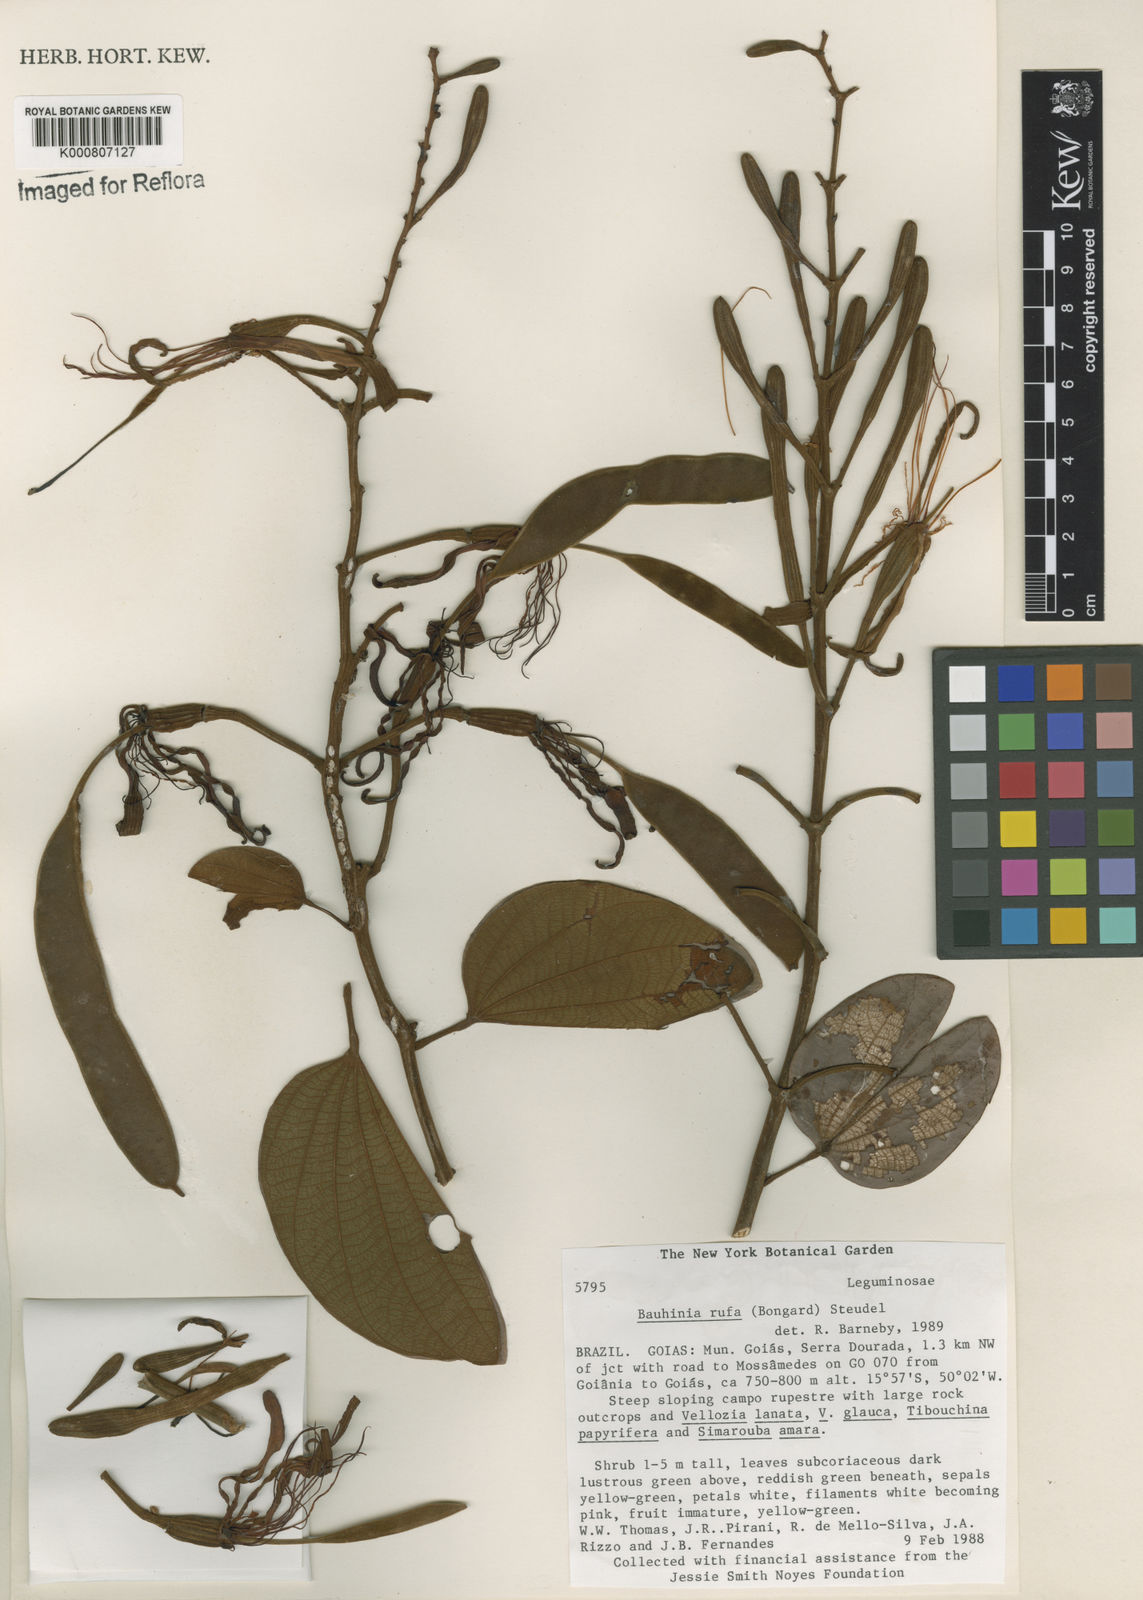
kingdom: Plantae
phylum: Tracheophyta
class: Magnoliopsida
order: Fabales
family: Fabaceae
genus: Bauhinia
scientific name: Bauhinia rufa
